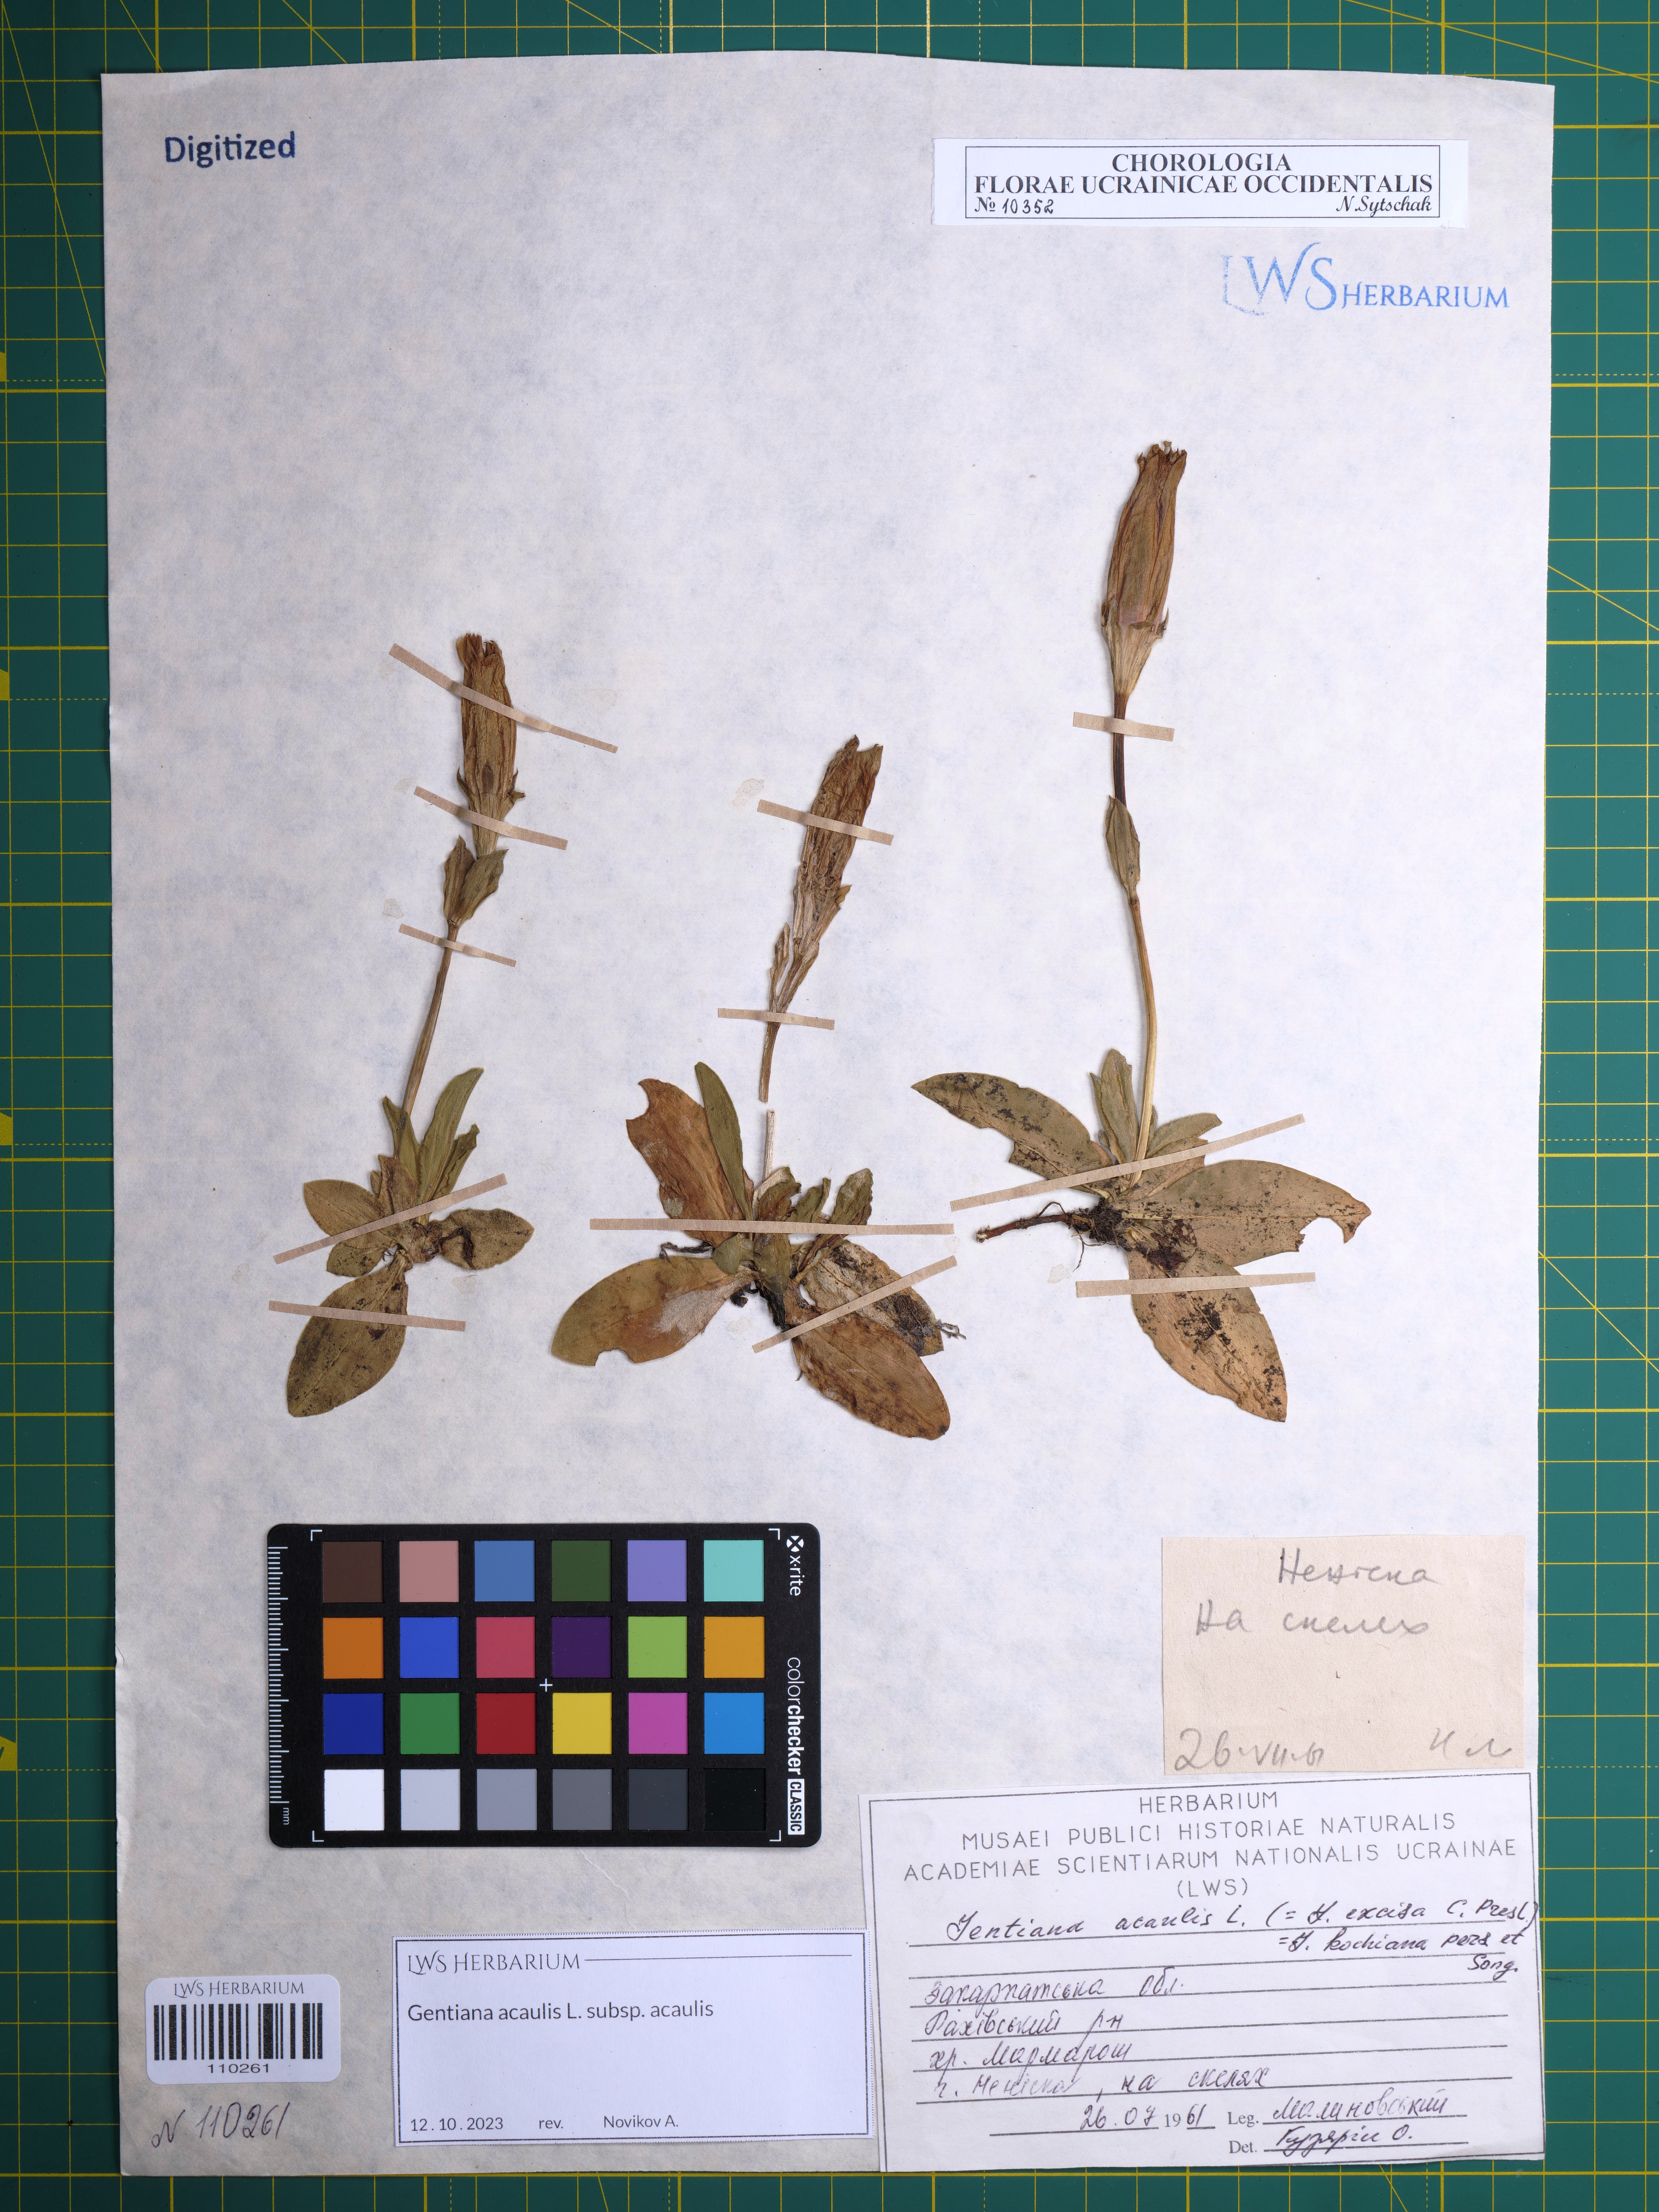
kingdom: Plantae
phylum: Tracheophyta
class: Magnoliopsida
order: Gentianales
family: Gentianaceae
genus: Gentiana
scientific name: Gentiana acaulis
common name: Trumpet gentian
